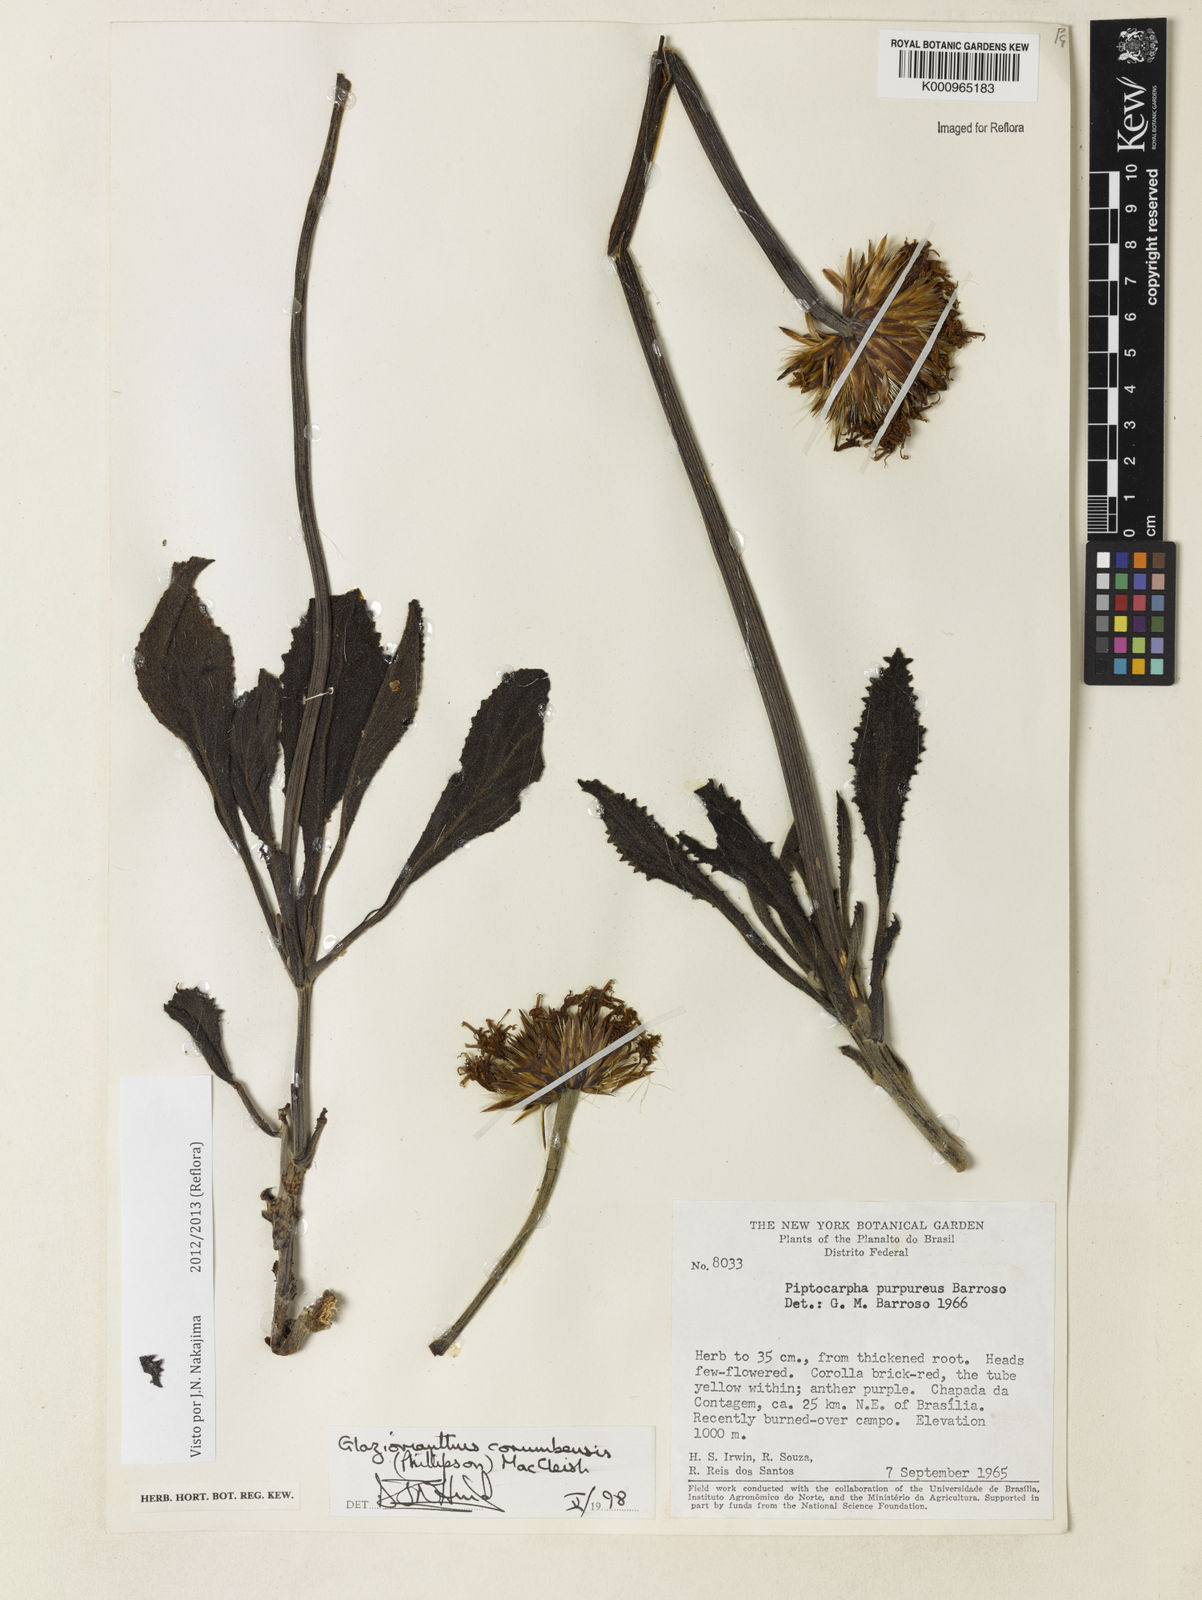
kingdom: Plantae
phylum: Tracheophyta
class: Magnoliopsida
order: Asterales
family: Asteraceae
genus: Chresta
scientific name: Chresta curumbensis
